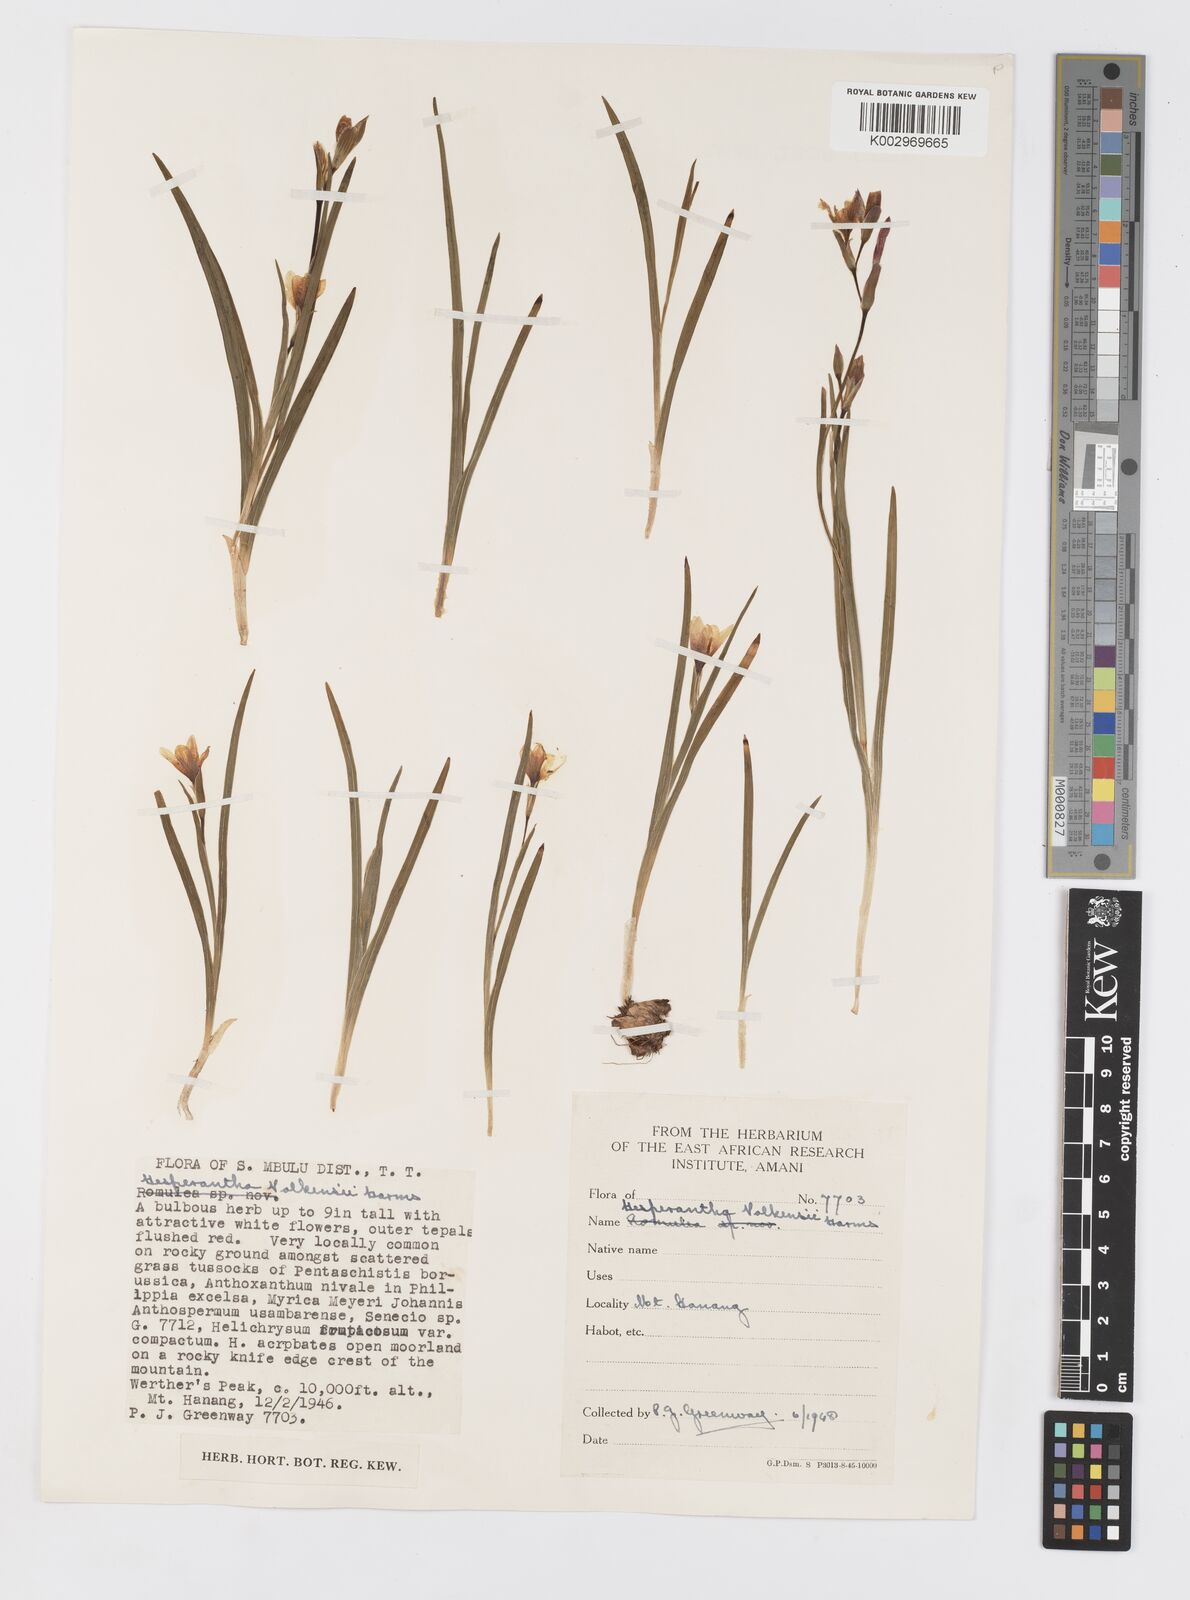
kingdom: Plantae
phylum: Tracheophyta
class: Liliopsida
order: Asparagales
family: Iridaceae
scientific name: Iridaceae
